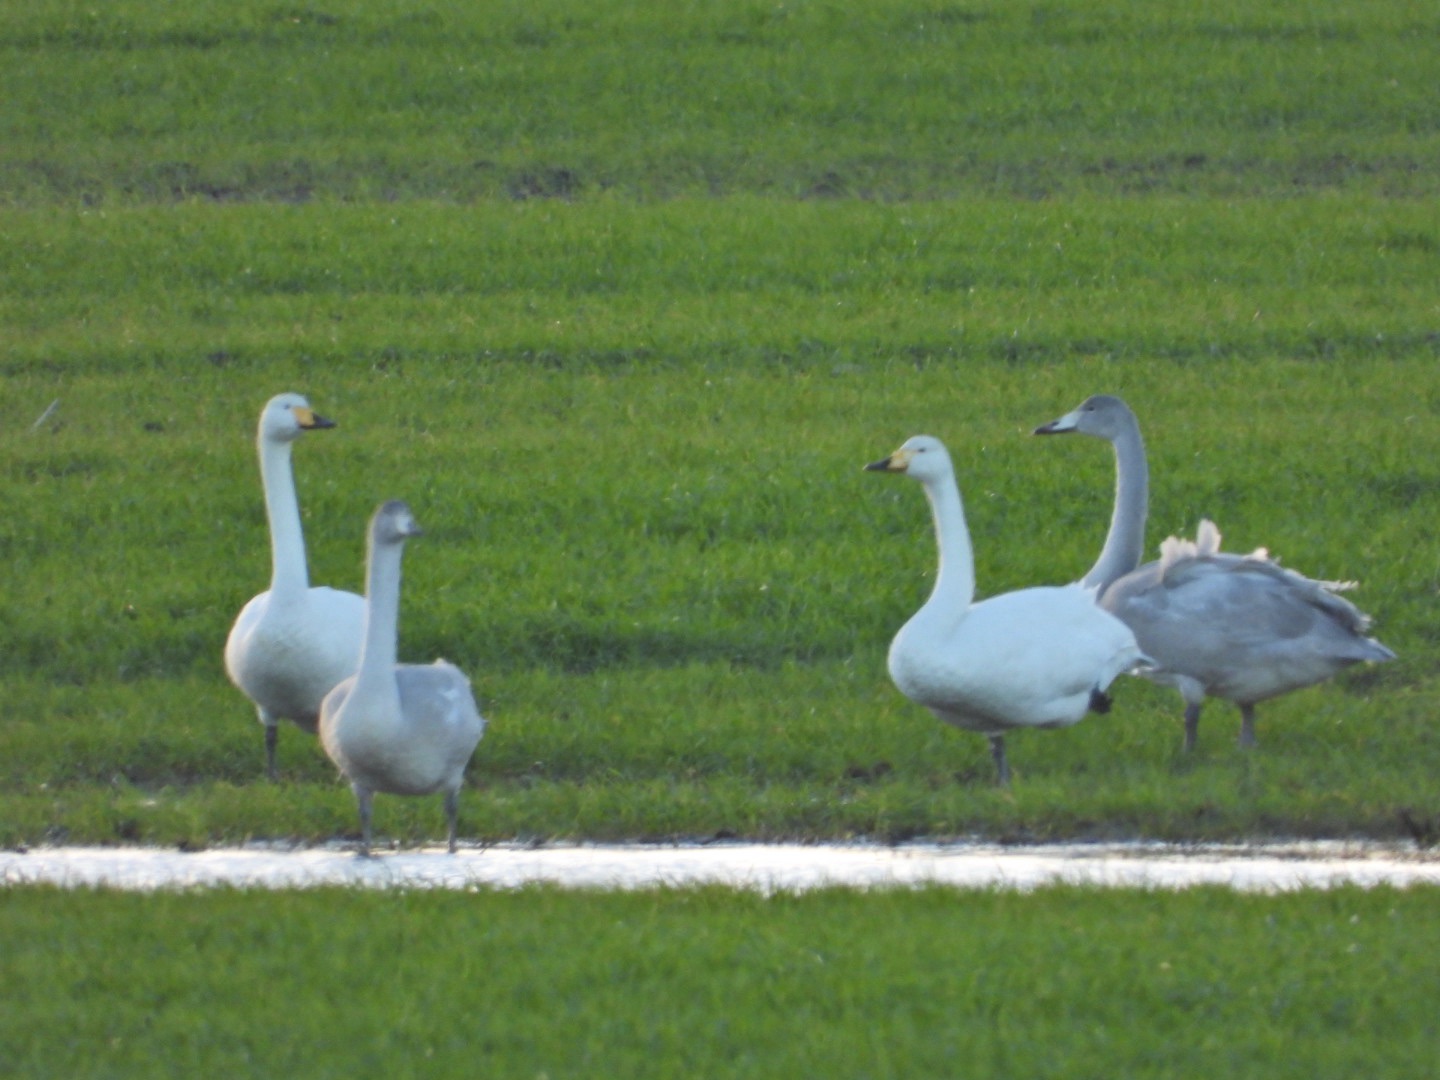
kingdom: Animalia
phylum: Chordata
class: Aves
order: Anseriformes
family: Anatidae
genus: Cygnus
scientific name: Cygnus cygnus
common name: Sangsvane
